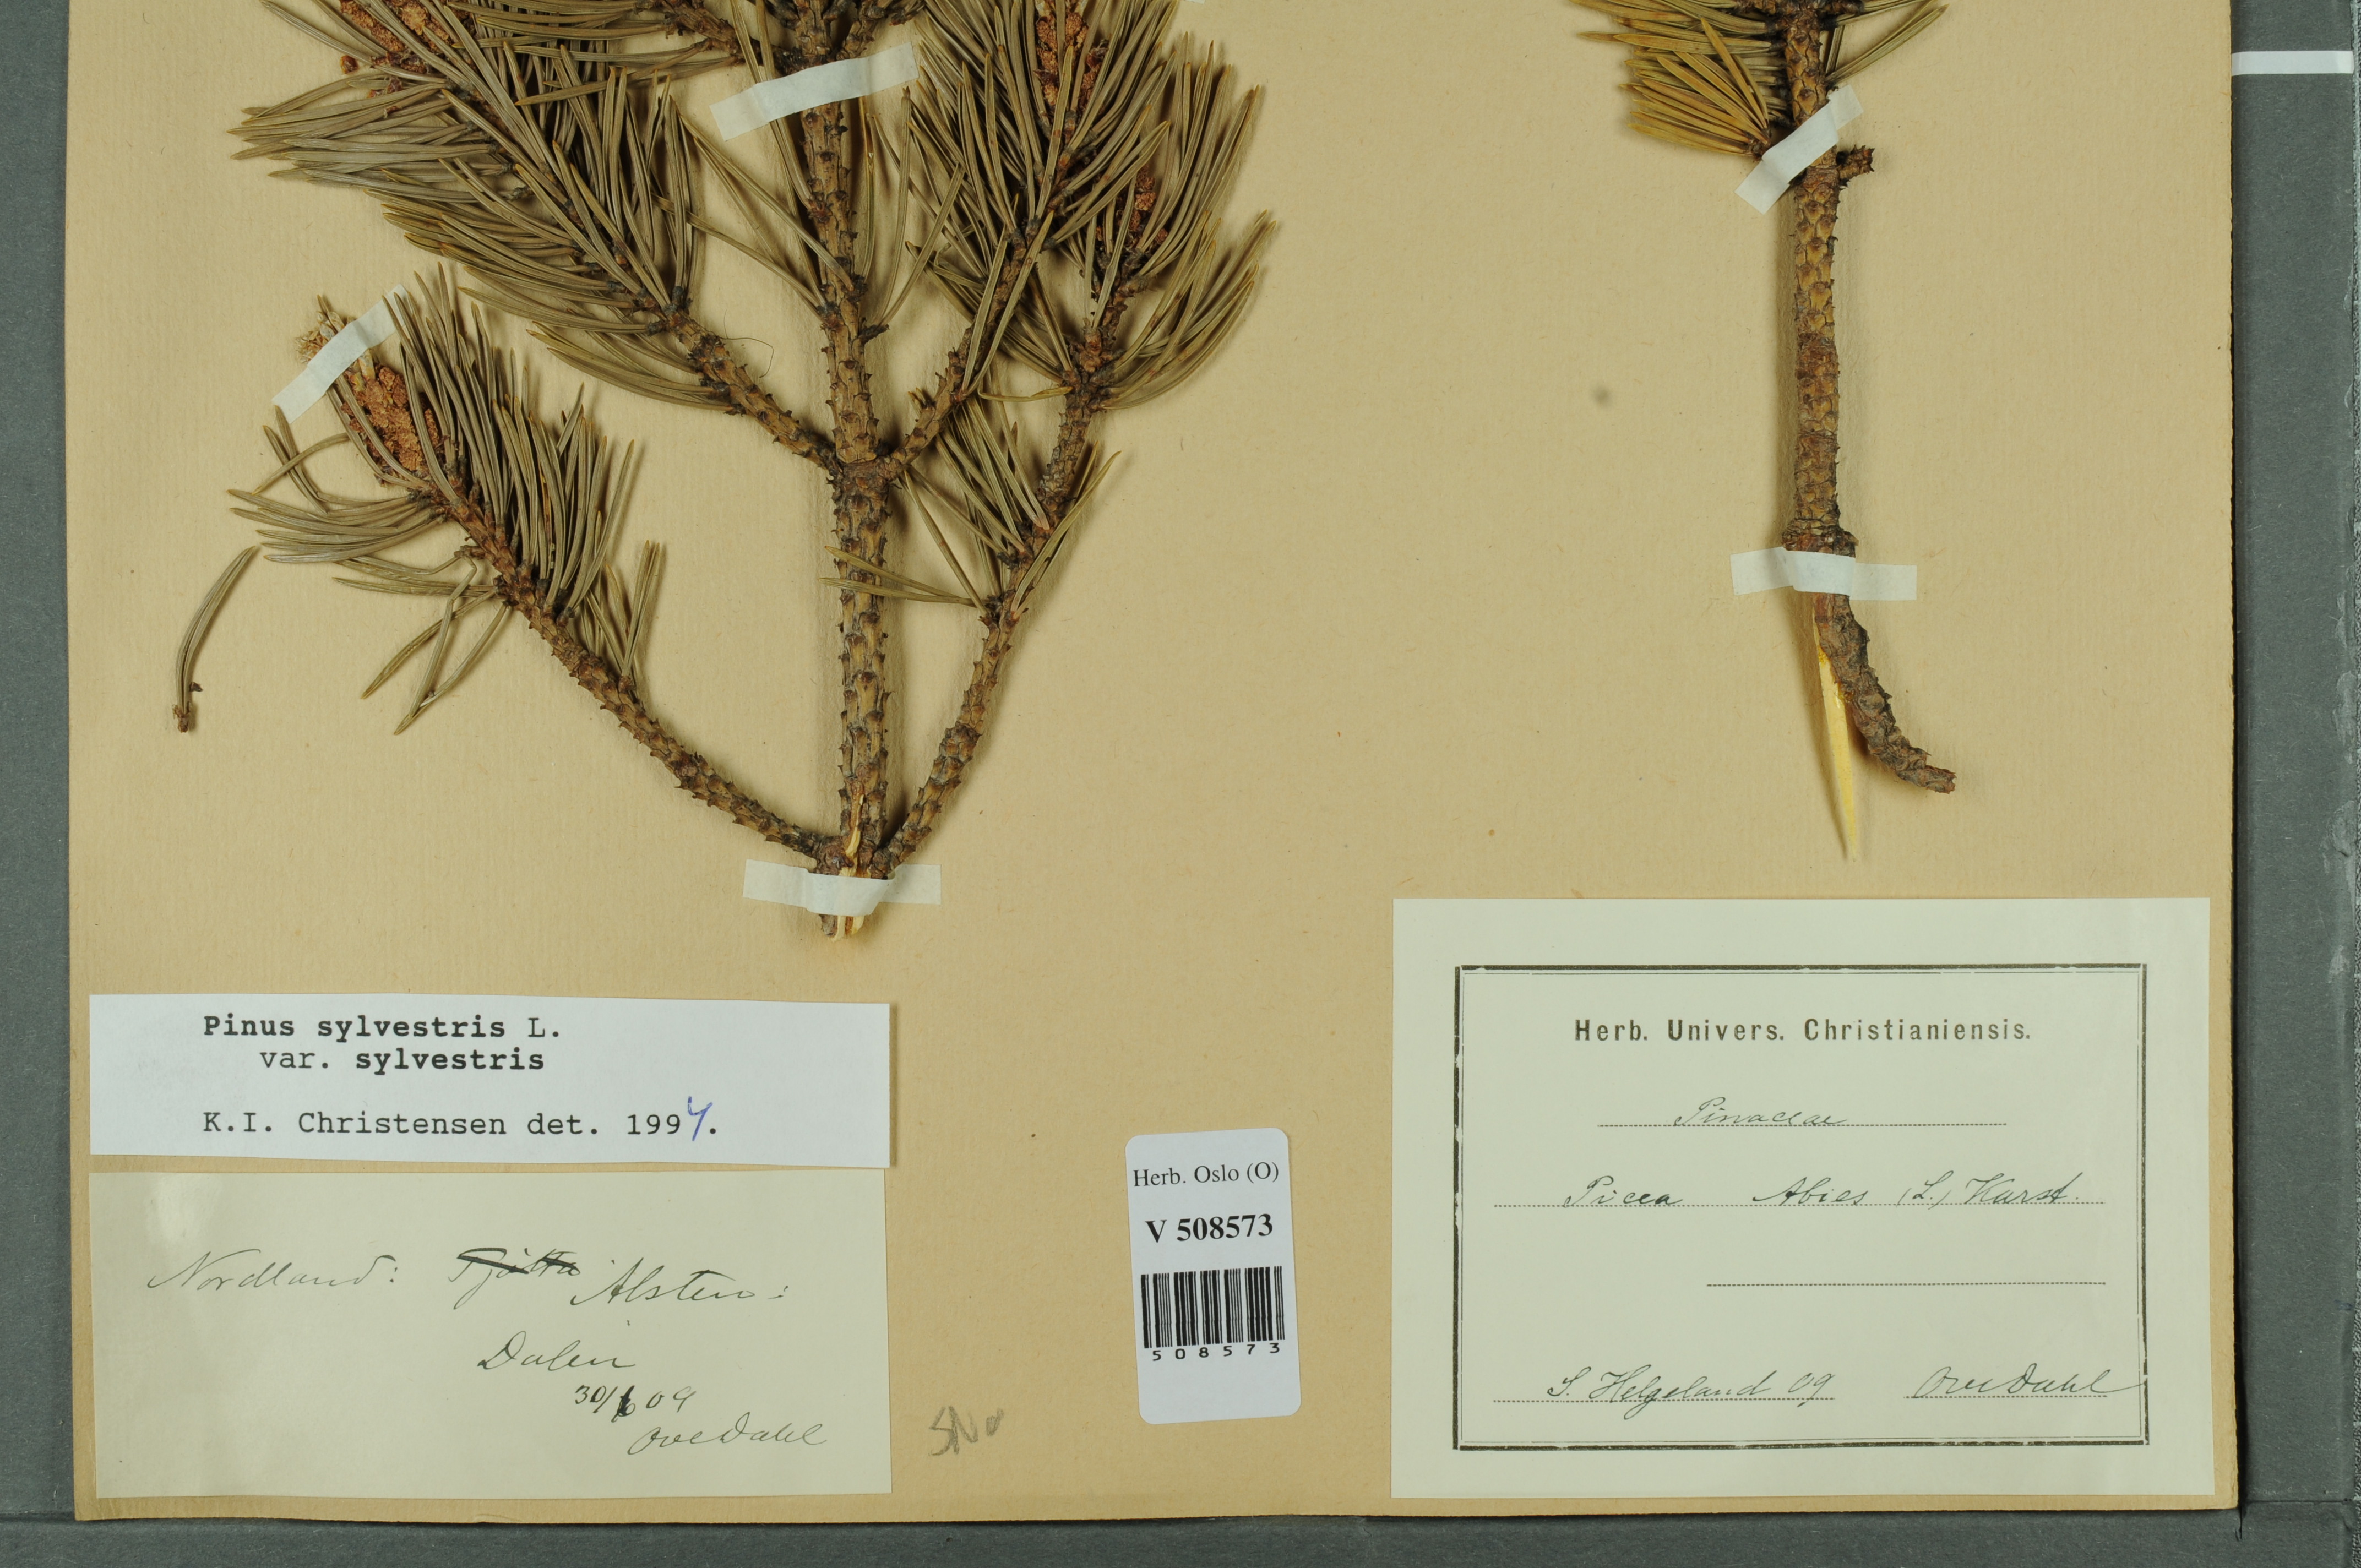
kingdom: Plantae
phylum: Tracheophyta
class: Pinopsida
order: Pinales
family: Pinaceae
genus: Pinus
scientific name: Pinus sylvestris
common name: Scots pine
